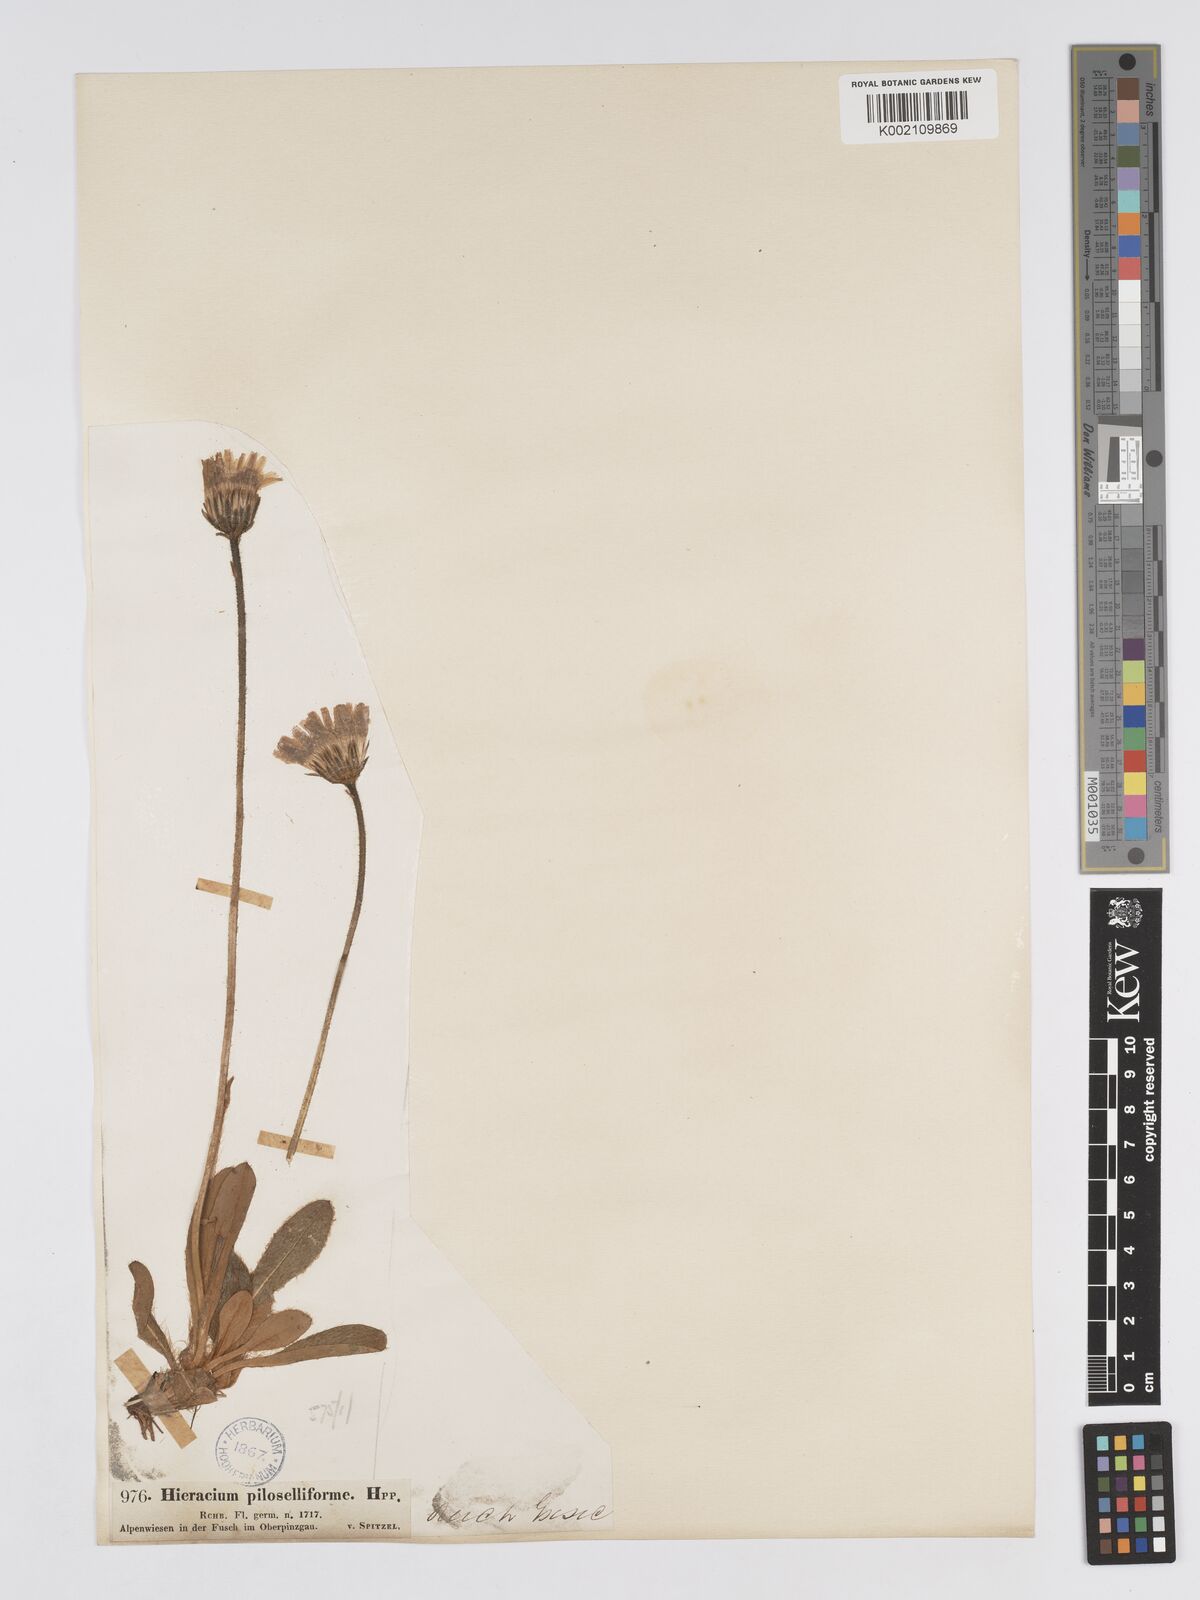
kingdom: Plantae
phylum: Tracheophyta
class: Magnoliopsida
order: Asterales
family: Asteraceae
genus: Pilosella
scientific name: Pilosella hoppeana
